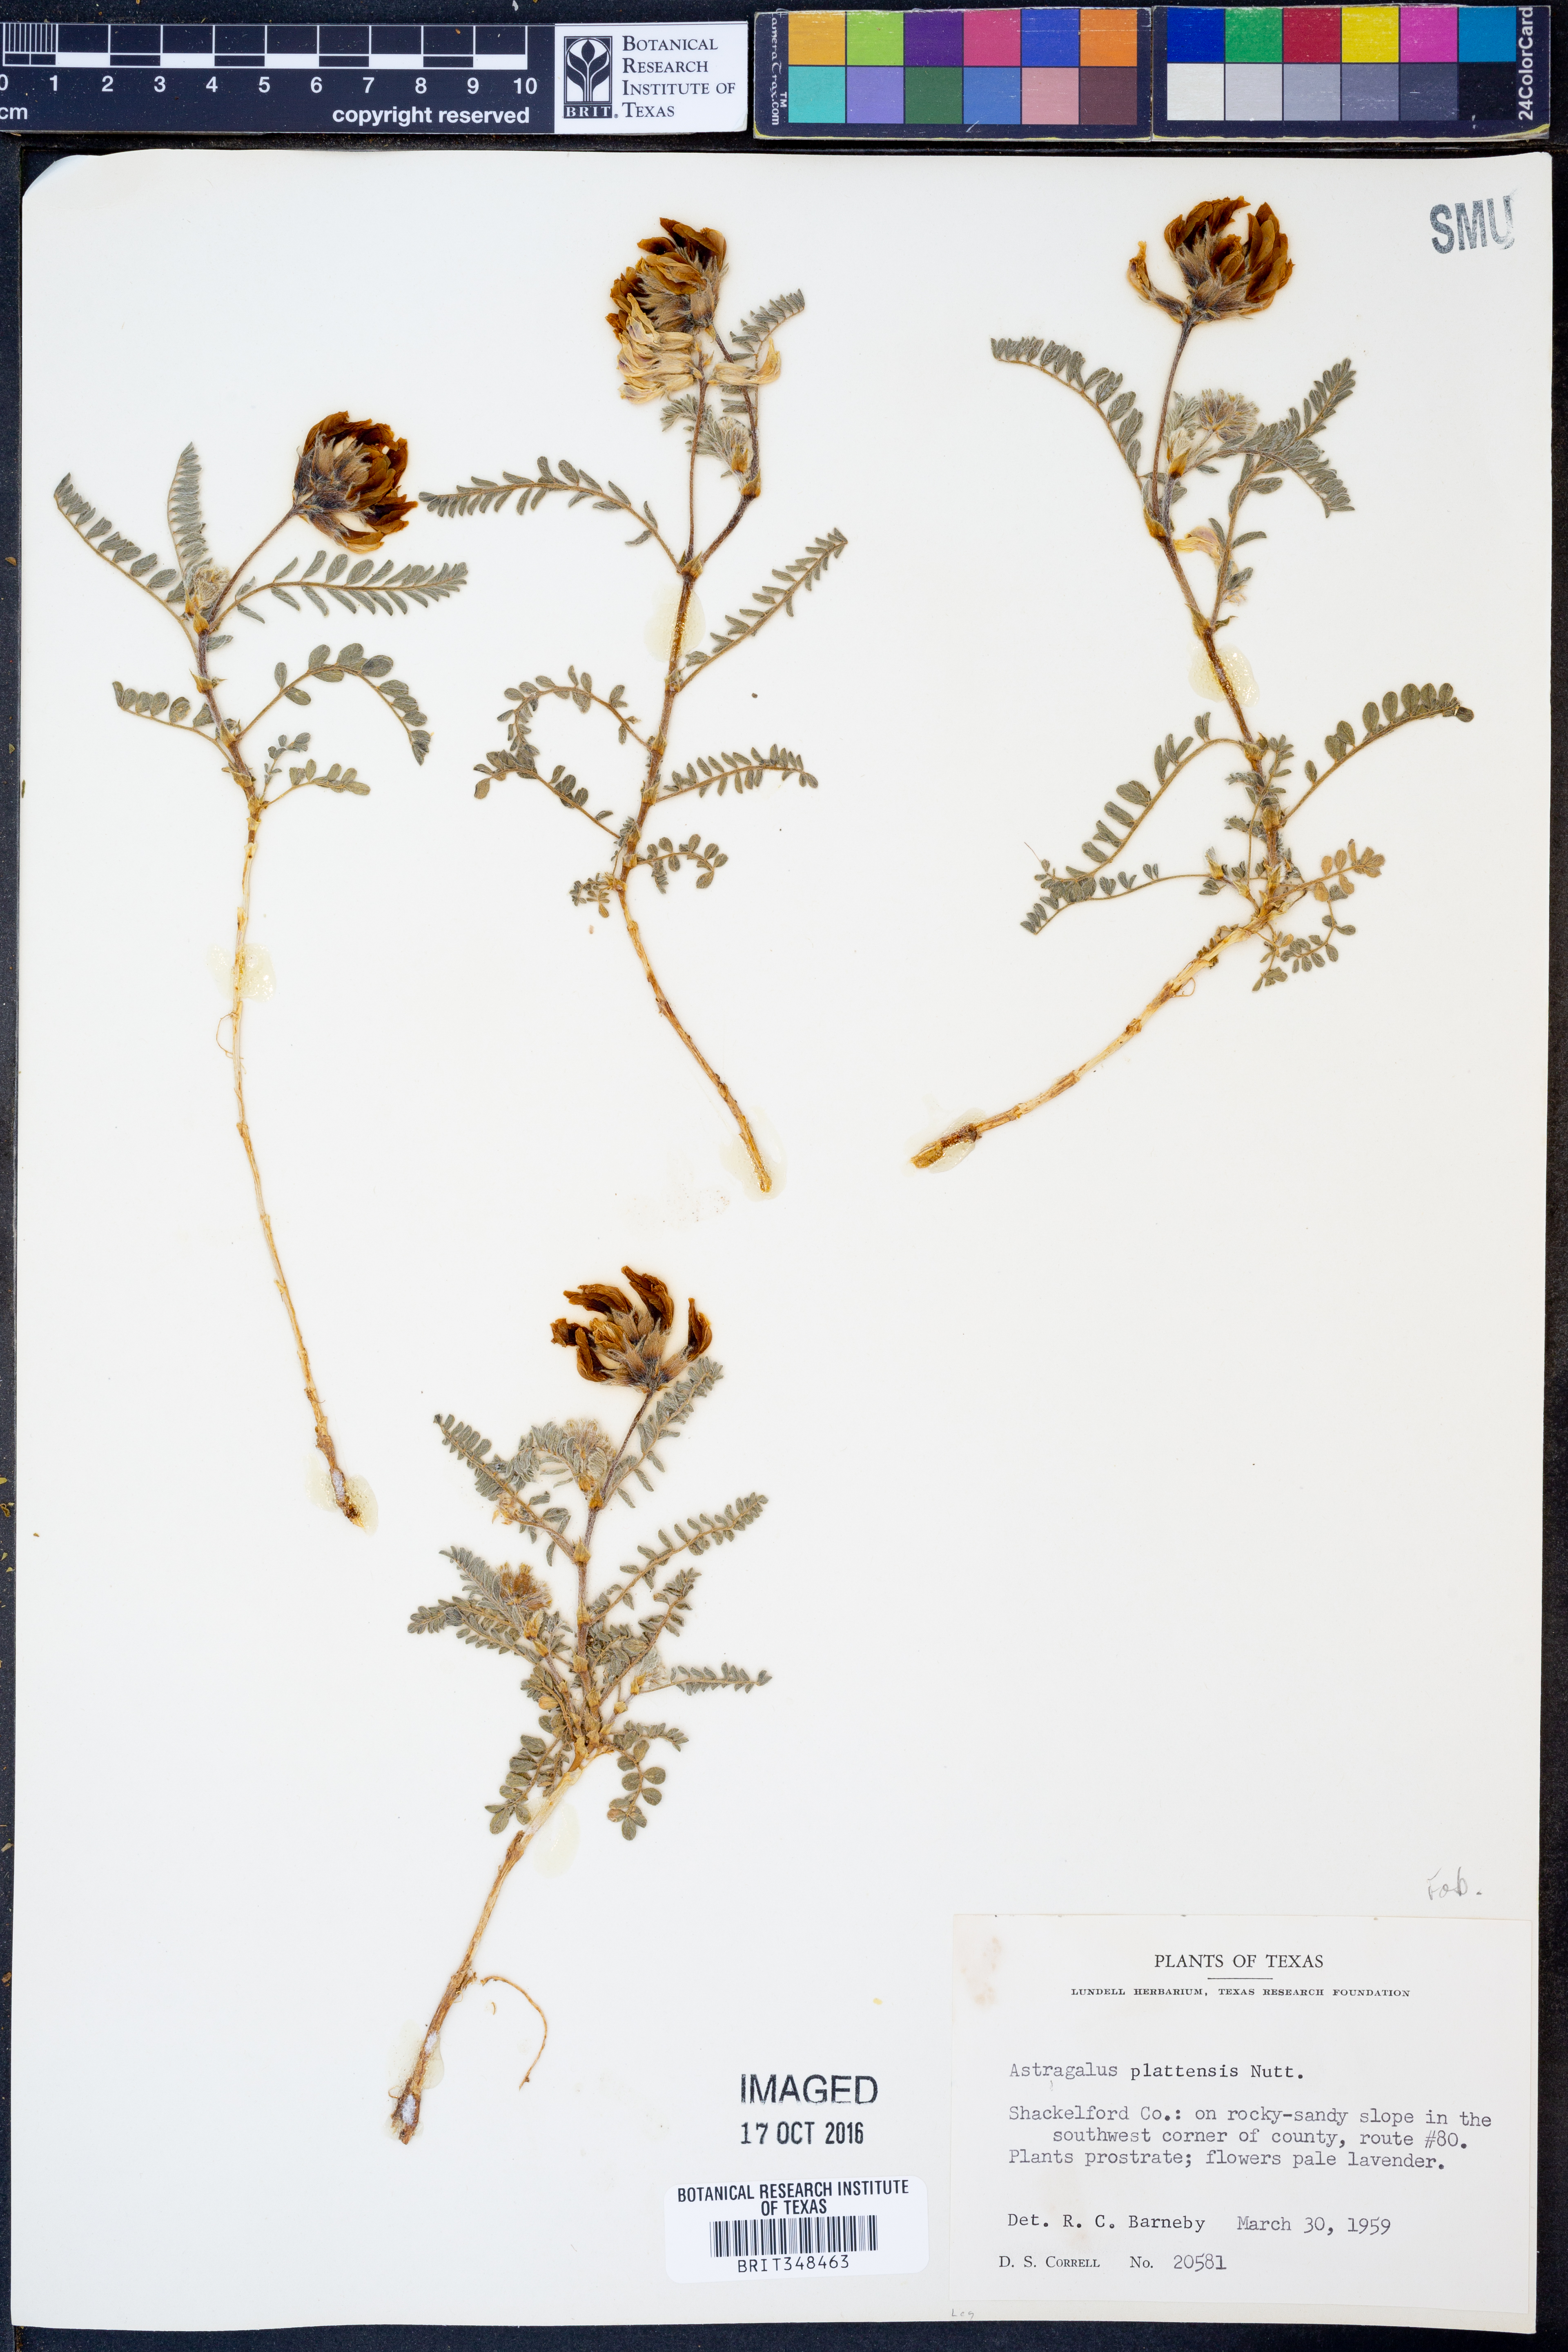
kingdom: Plantae
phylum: Tracheophyta
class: Magnoliopsida
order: Fabales
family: Fabaceae
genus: Astragalus
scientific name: Astragalus plattensis
